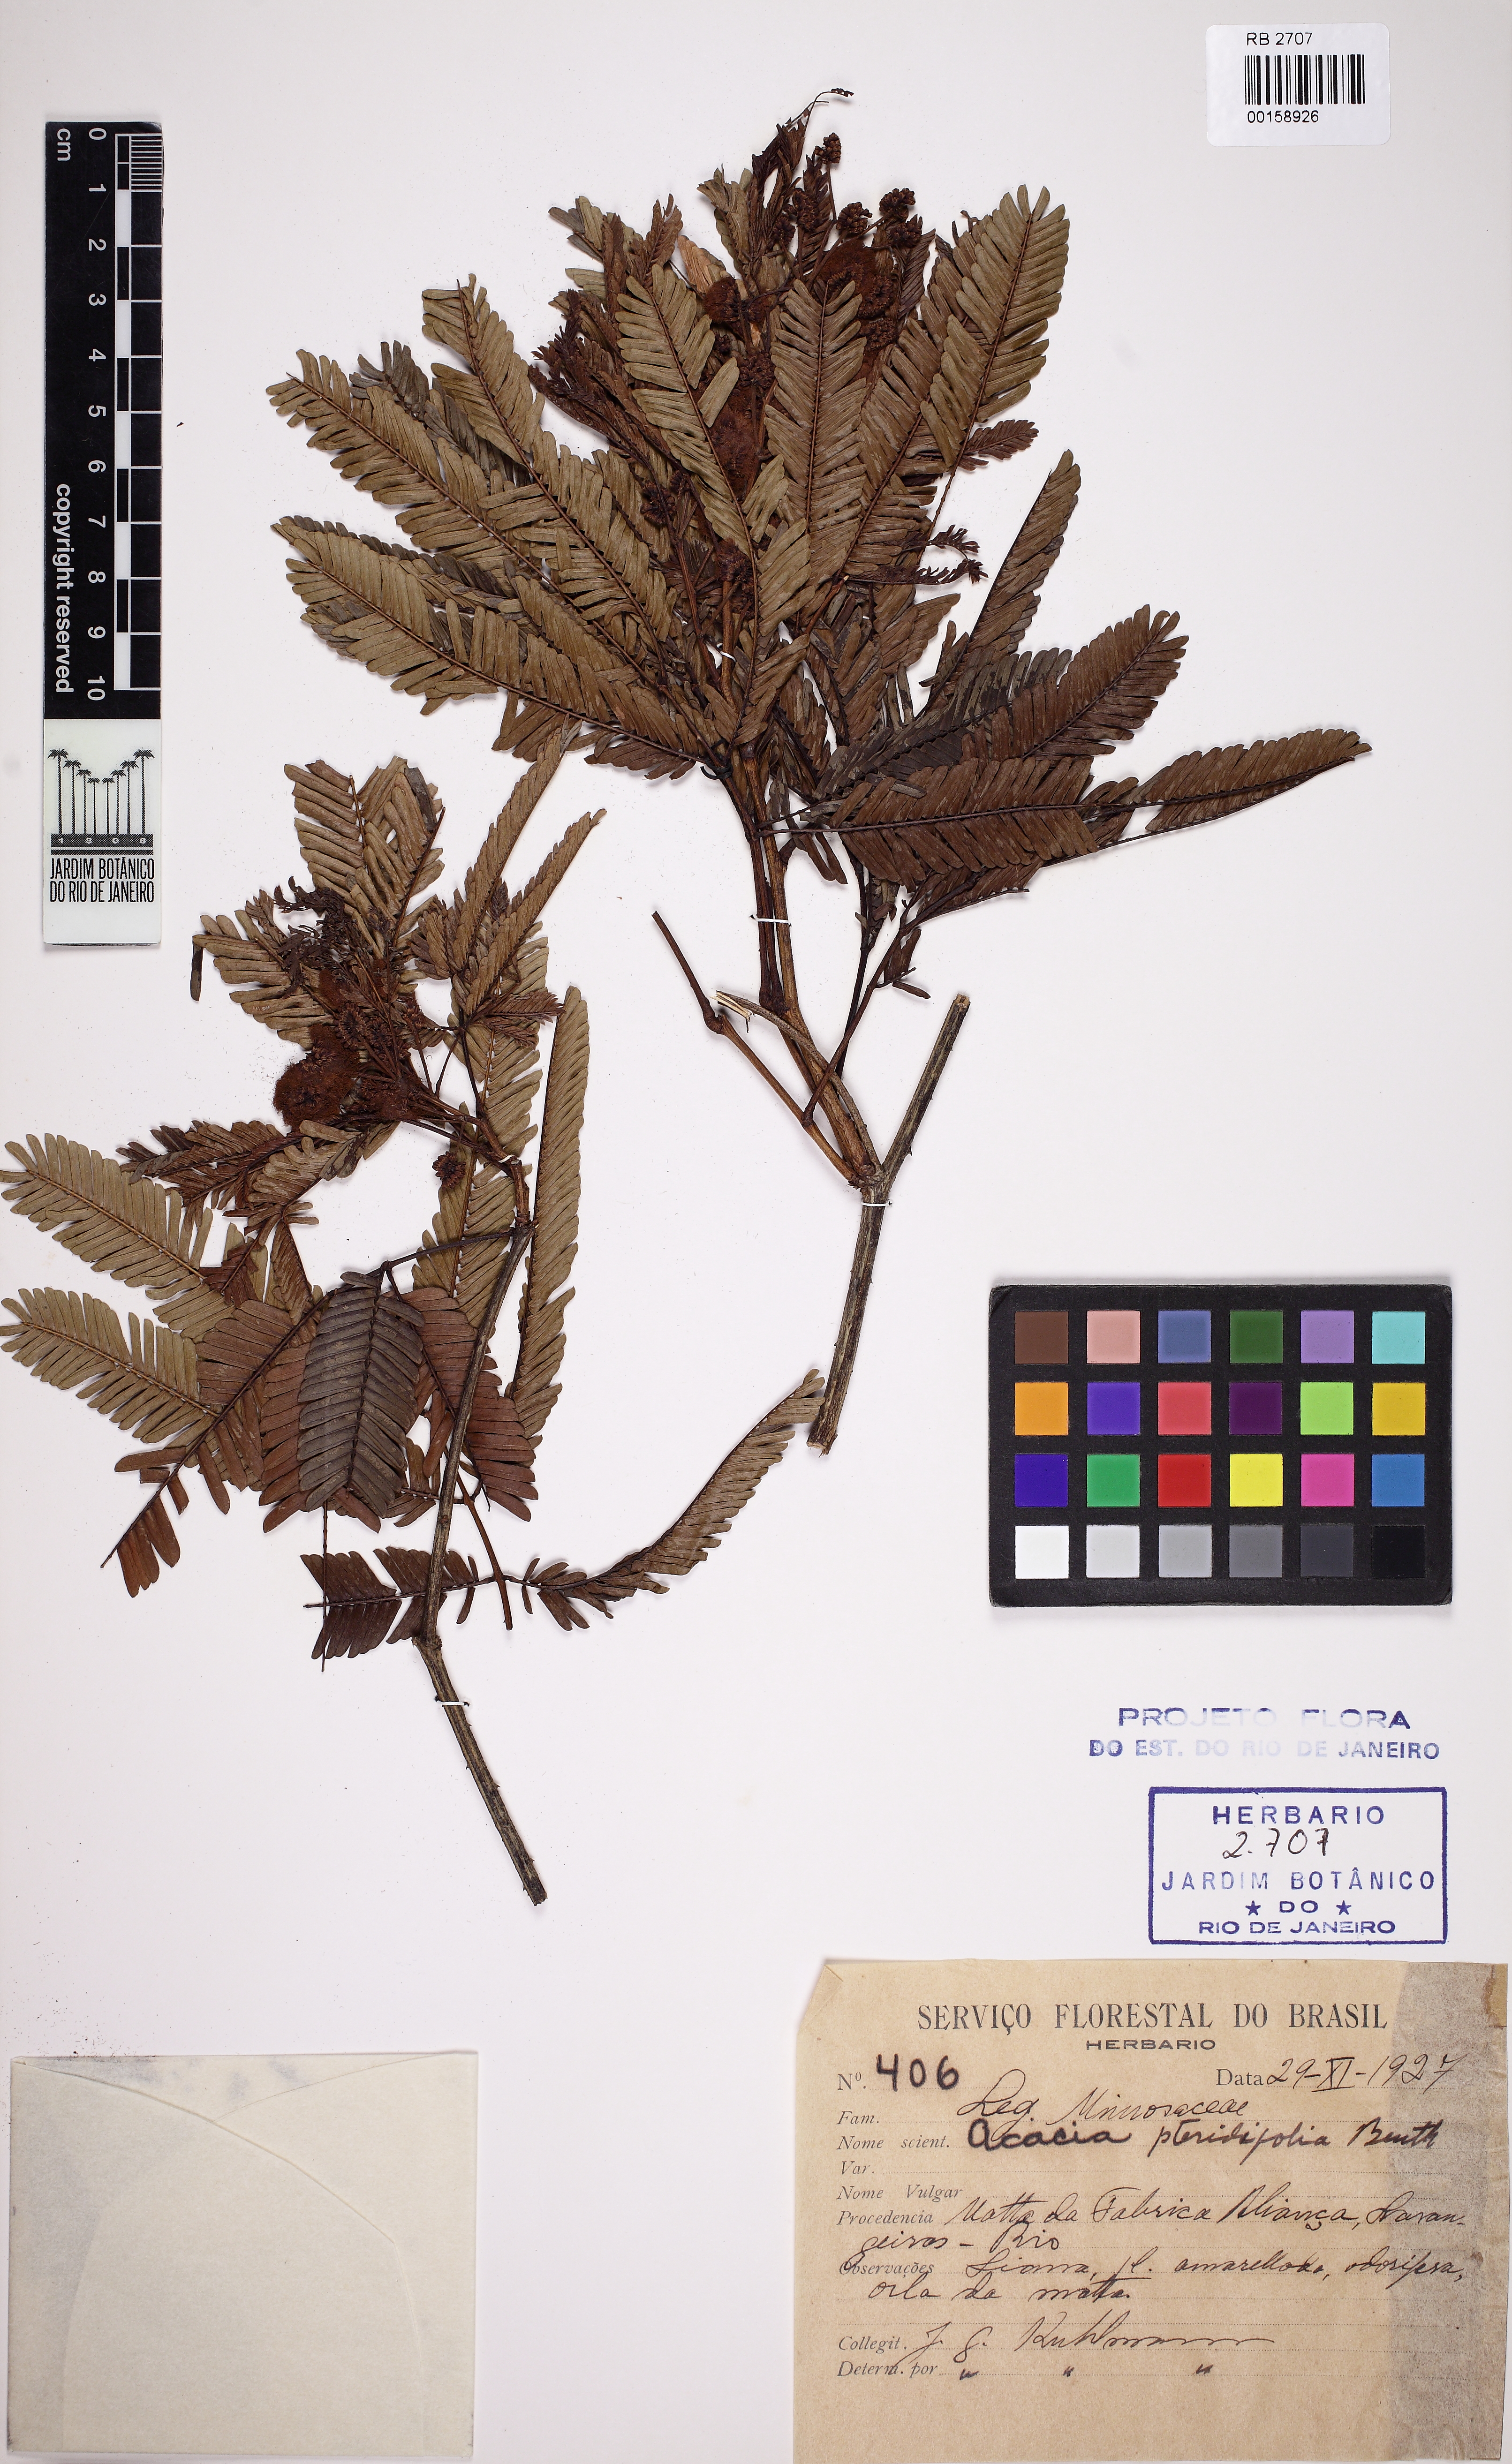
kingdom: Plantae
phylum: Tracheophyta
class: Magnoliopsida
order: Fabales
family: Fabaceae
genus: Senegalia
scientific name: Senegalia pteridifolia
